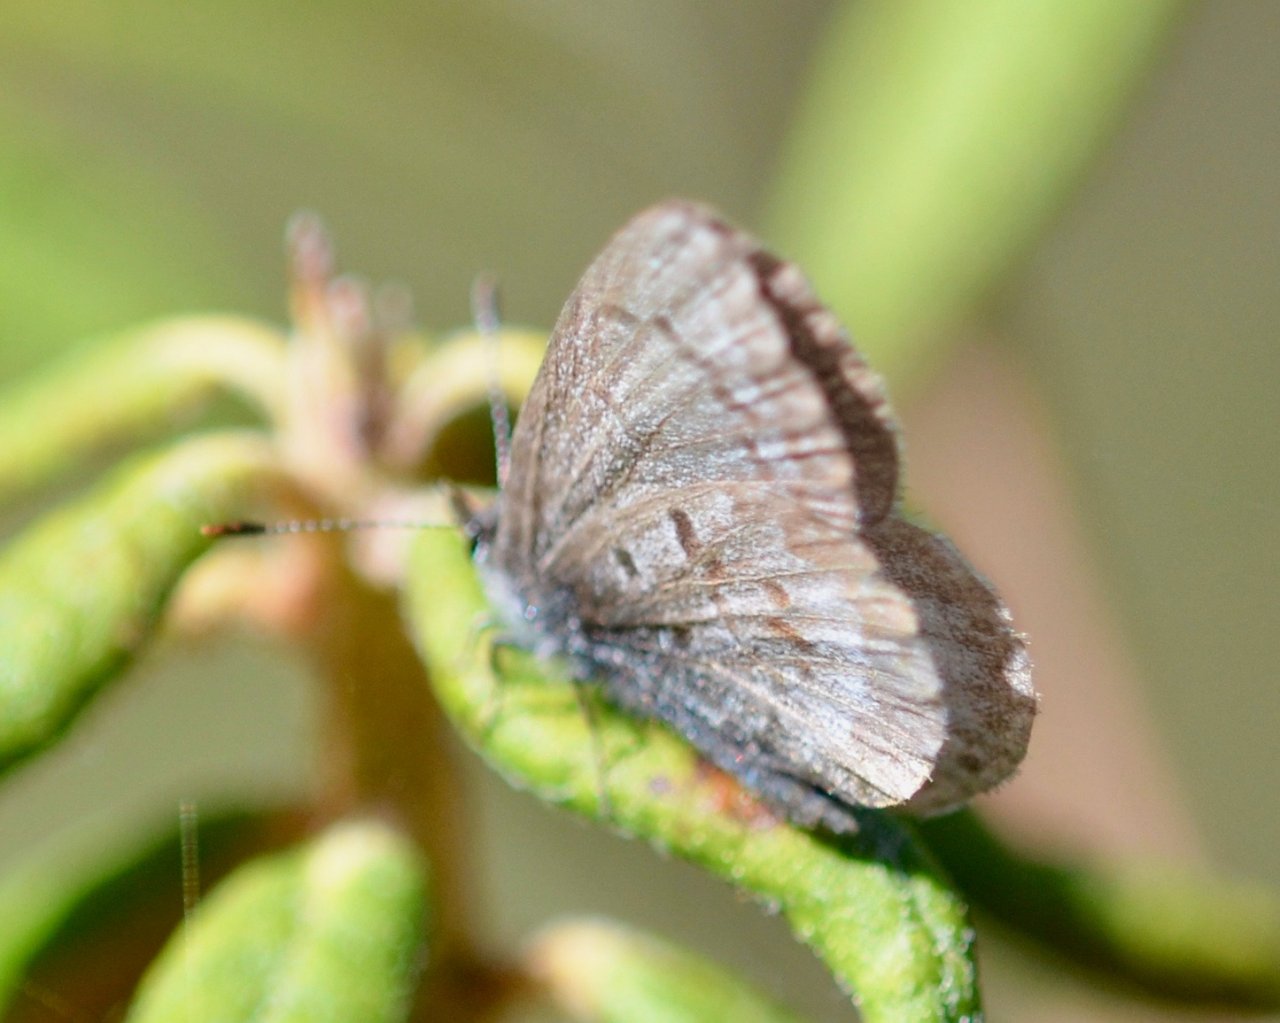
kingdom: Animalia
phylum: Arthropoda
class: Insecta
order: Lepidoptera
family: Lycaenidae
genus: Celastrina
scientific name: Celastrina lucia
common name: Northern Spring Azure
